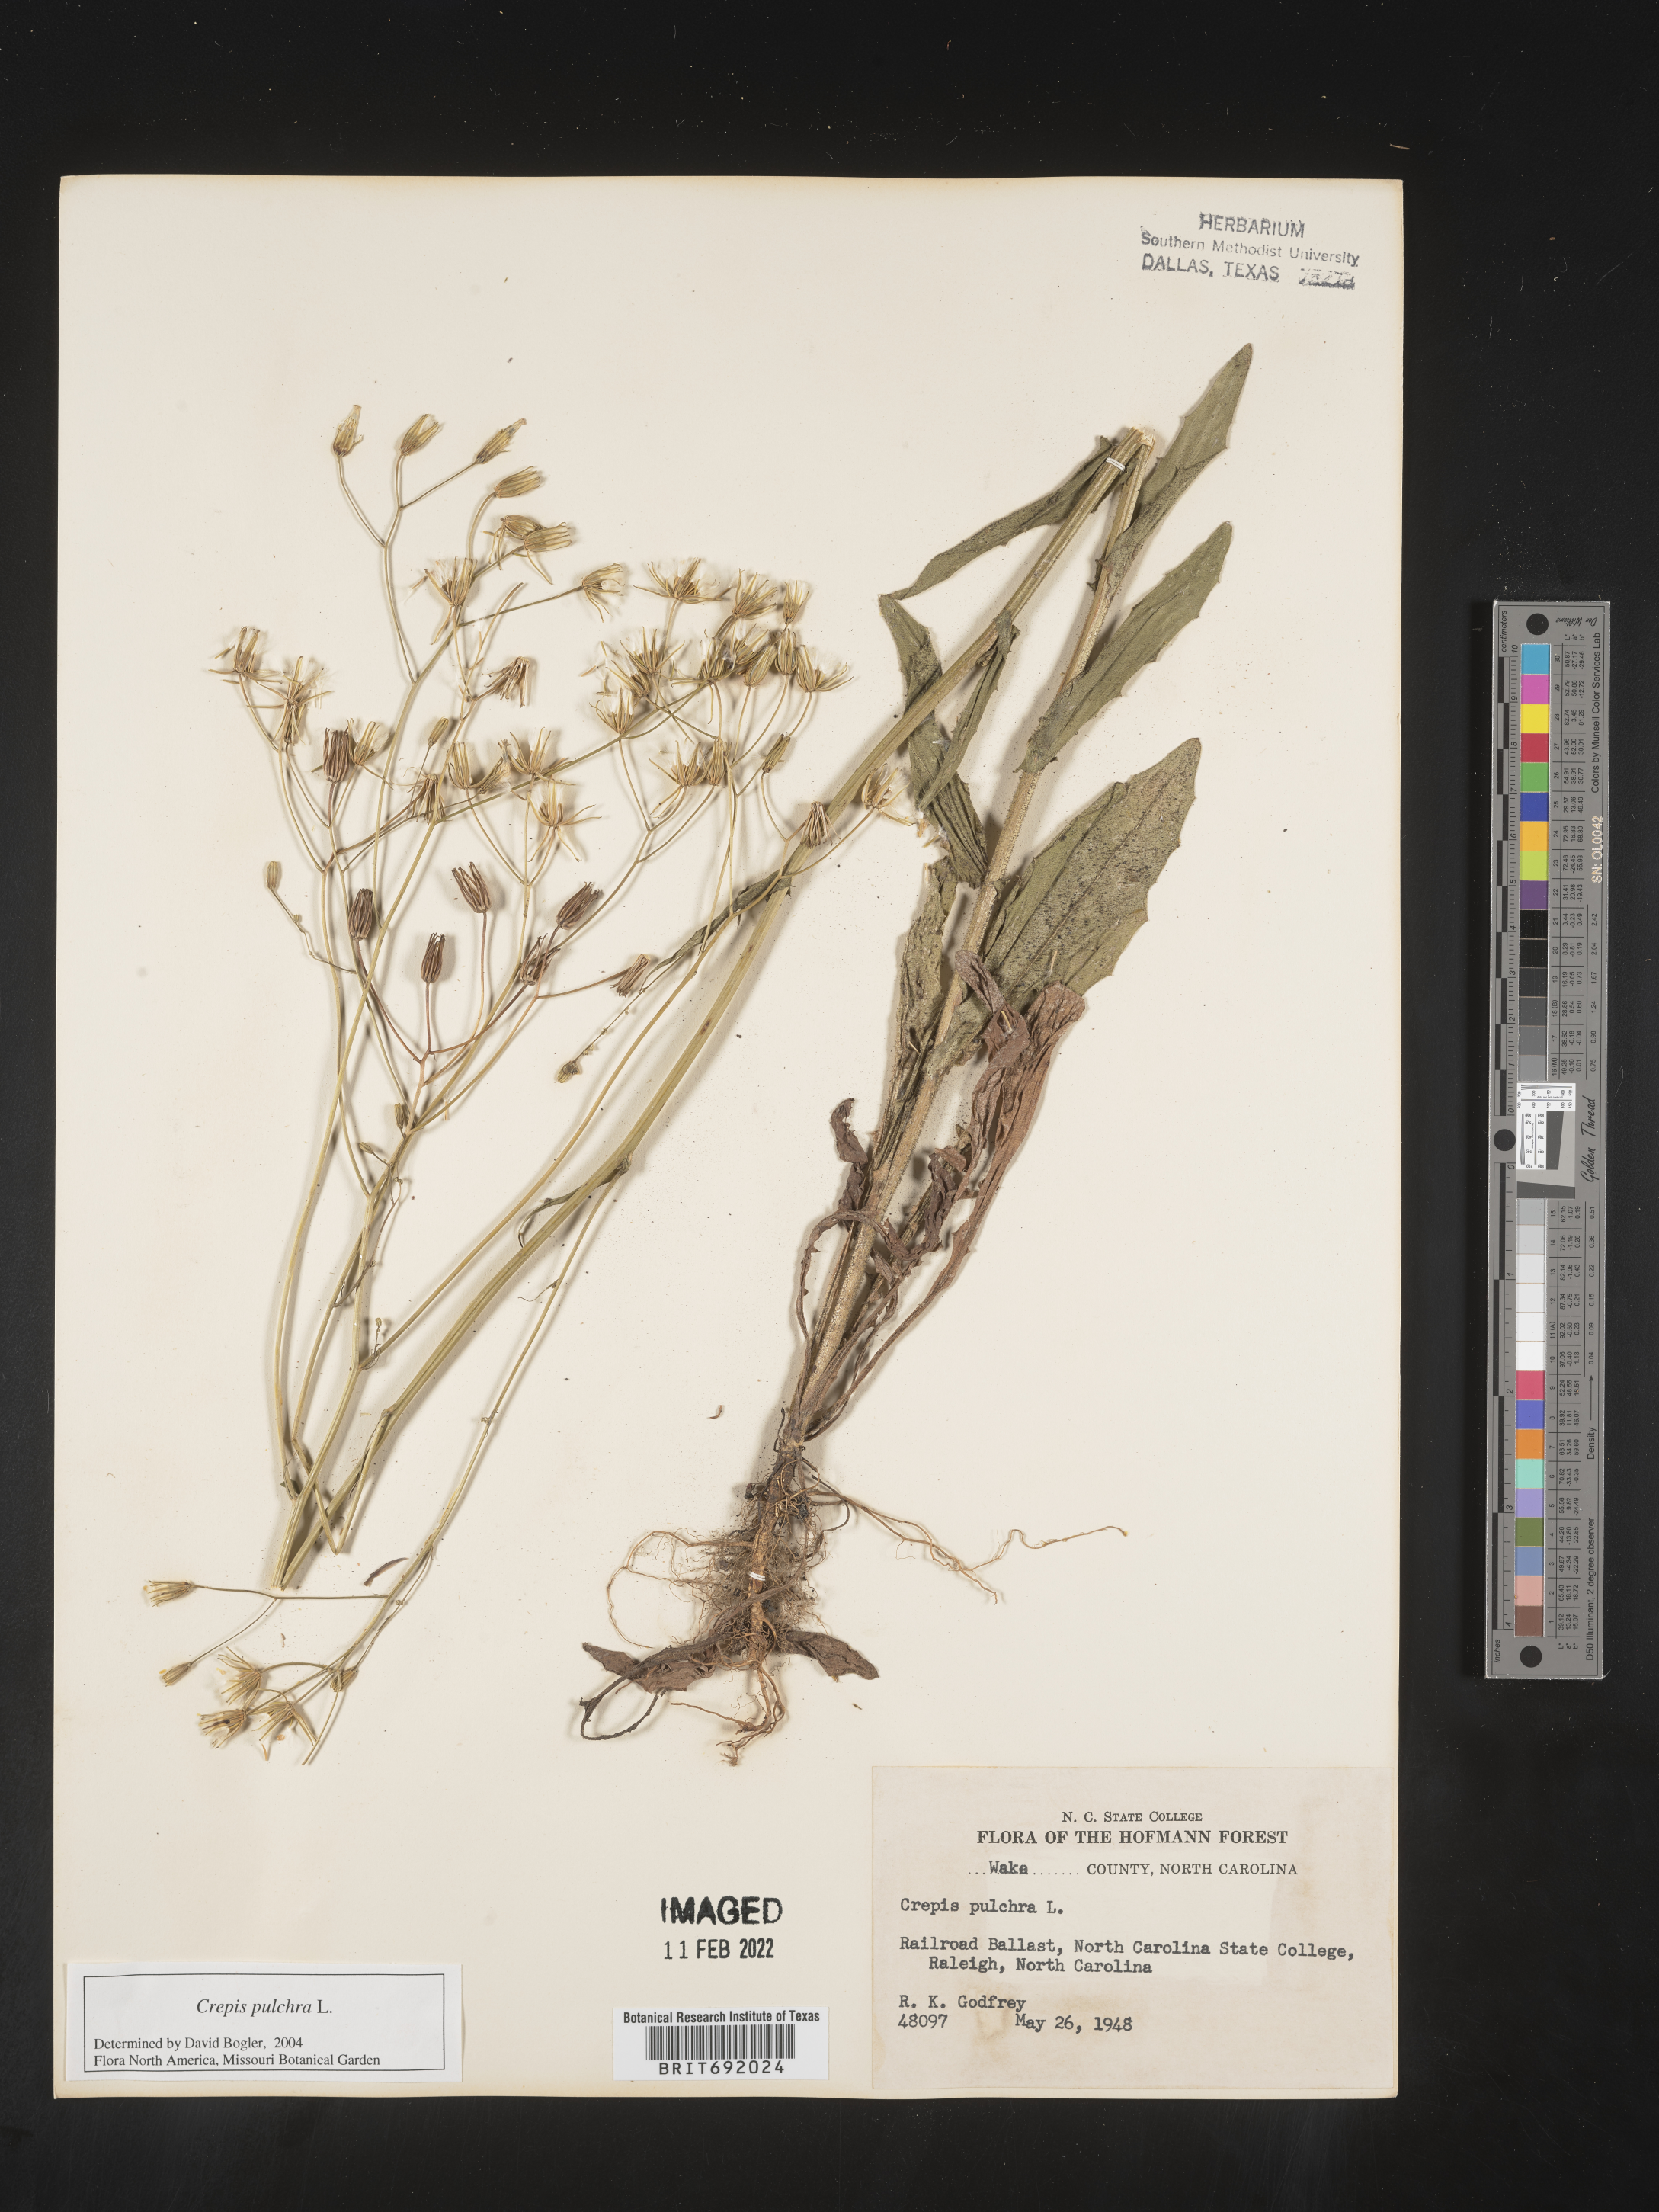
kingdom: Plantae
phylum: Tracheophyta
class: Magnoliopsida
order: Asterales
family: Asteraceae
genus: Crepis
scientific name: Crepis pulchra
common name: Hawk's-beard
